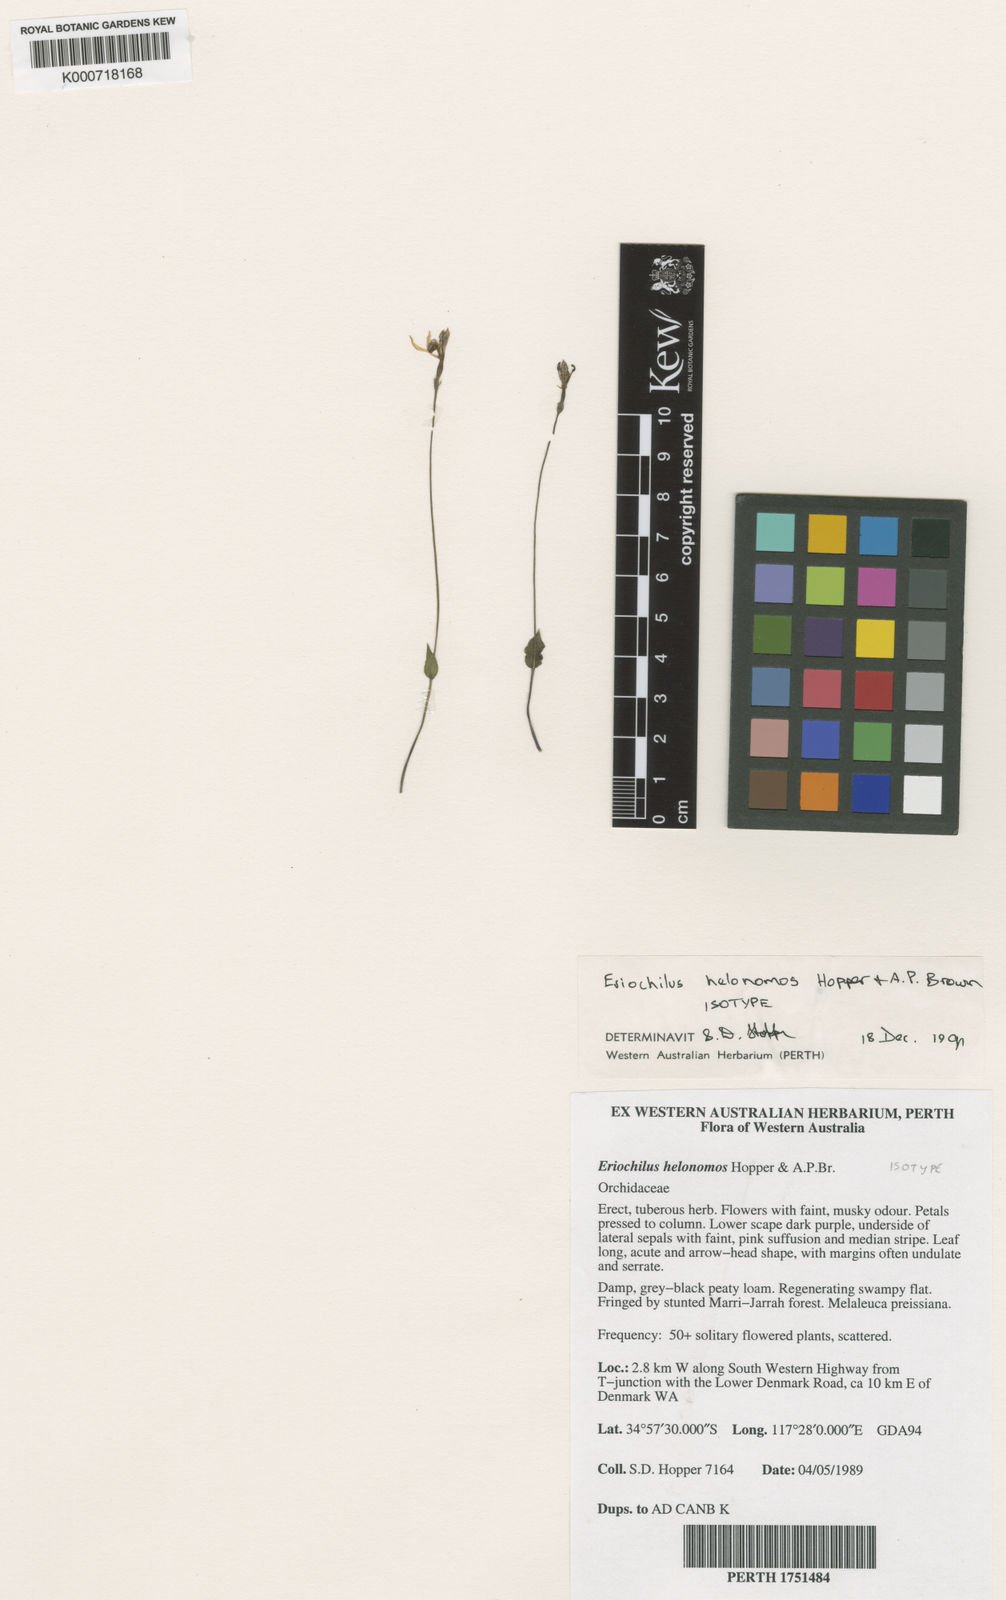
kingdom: Plantae
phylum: Tracheophyta
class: Liliopsida
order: Asparagales
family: Orchidaceae
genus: Eriochilus
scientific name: Eriochilus helonomos
